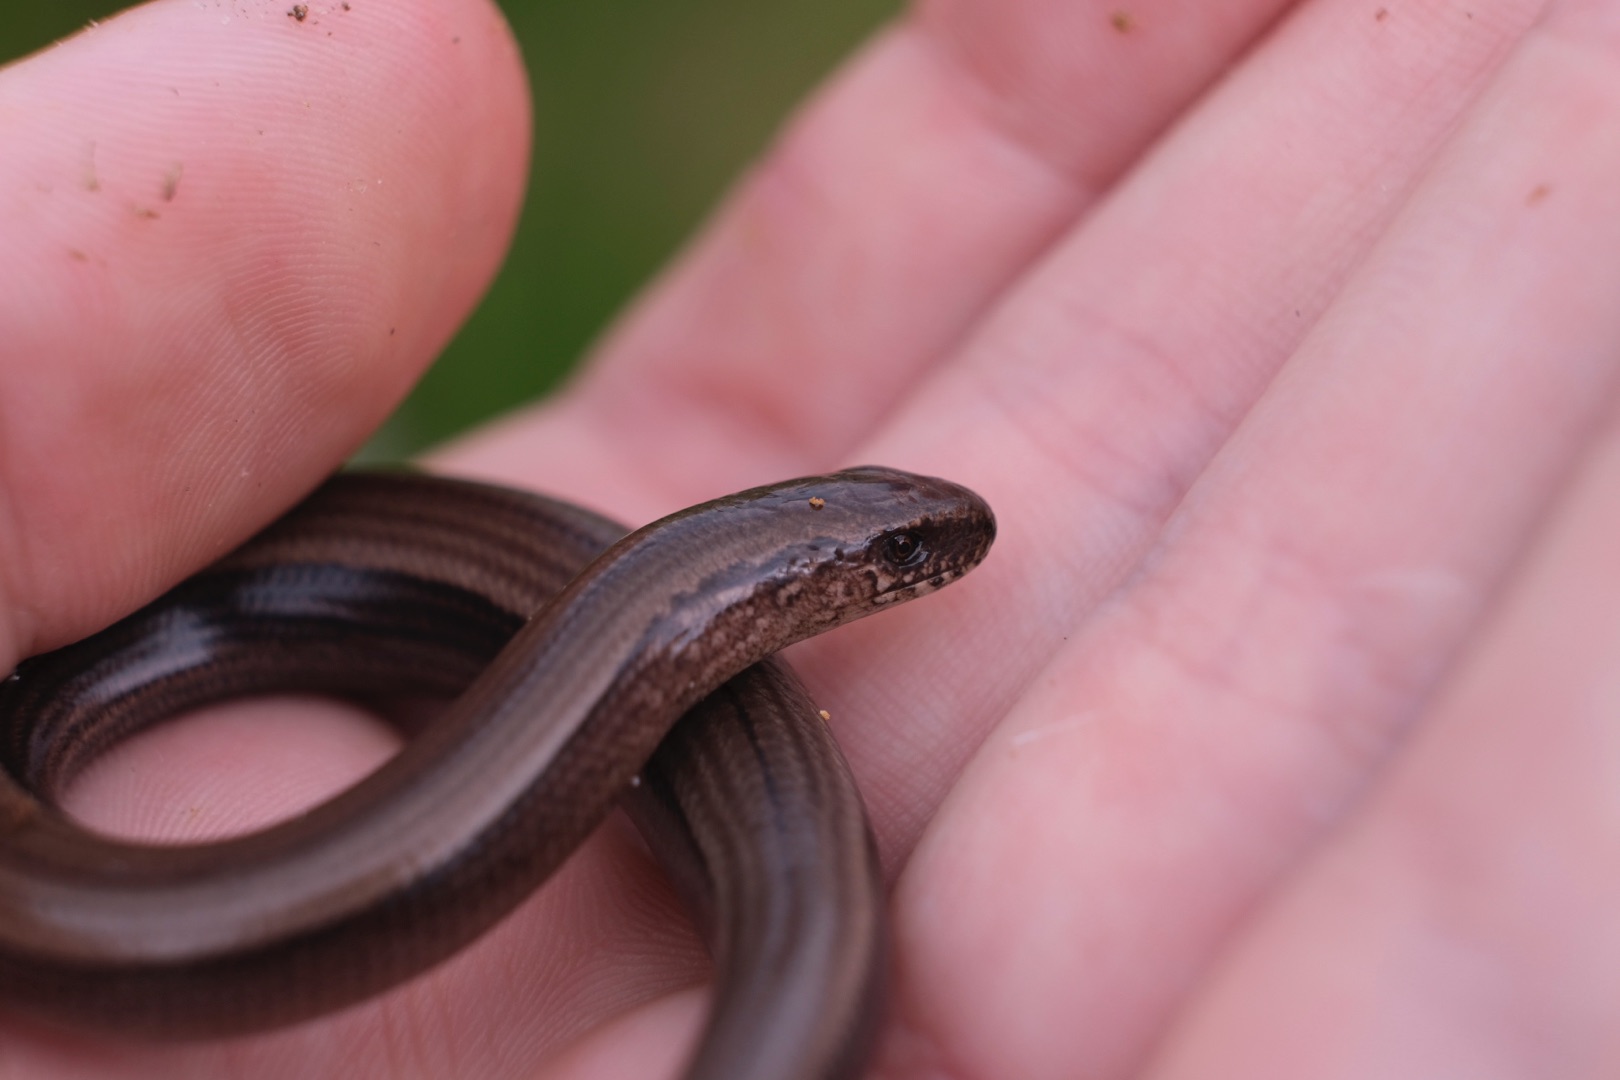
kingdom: Animalia
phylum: Chordata
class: Squamata
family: Anguidae
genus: Anguis
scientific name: Anguis fragilis
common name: Stålorm
